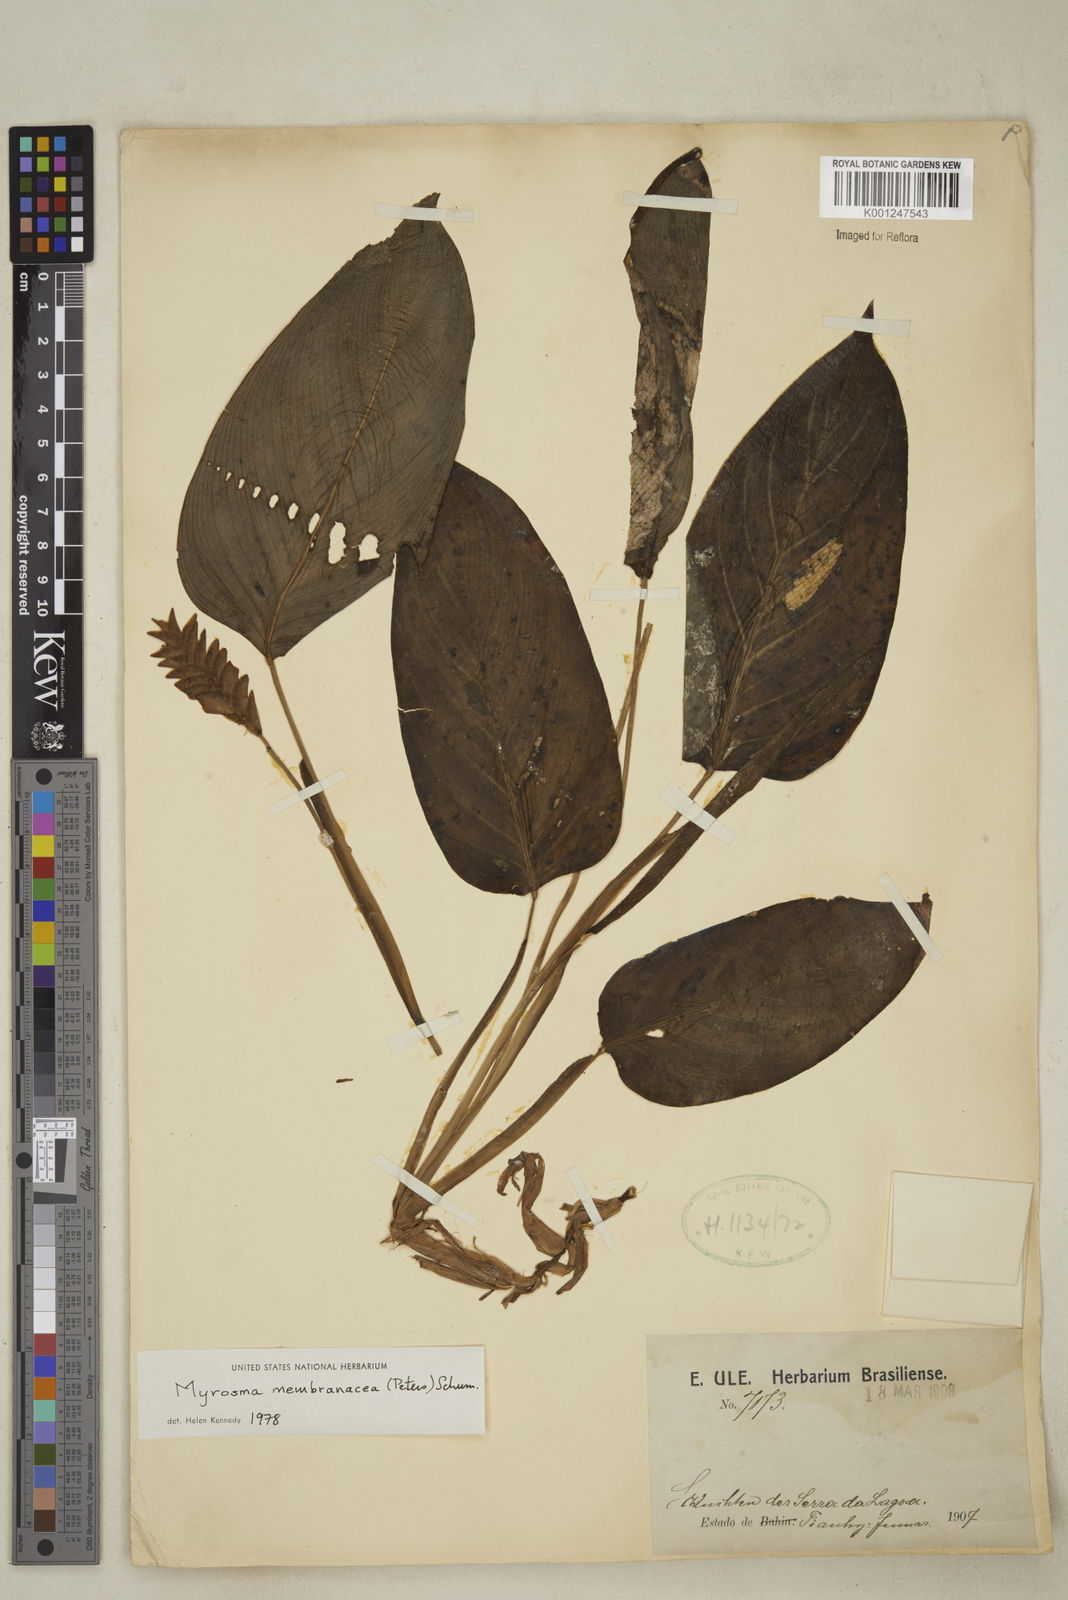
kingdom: Plantae
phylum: Tracheophyta
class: Liliopsida
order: Zingiberales
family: Marantaceae
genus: Saranthe
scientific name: Saranthe membranacea
